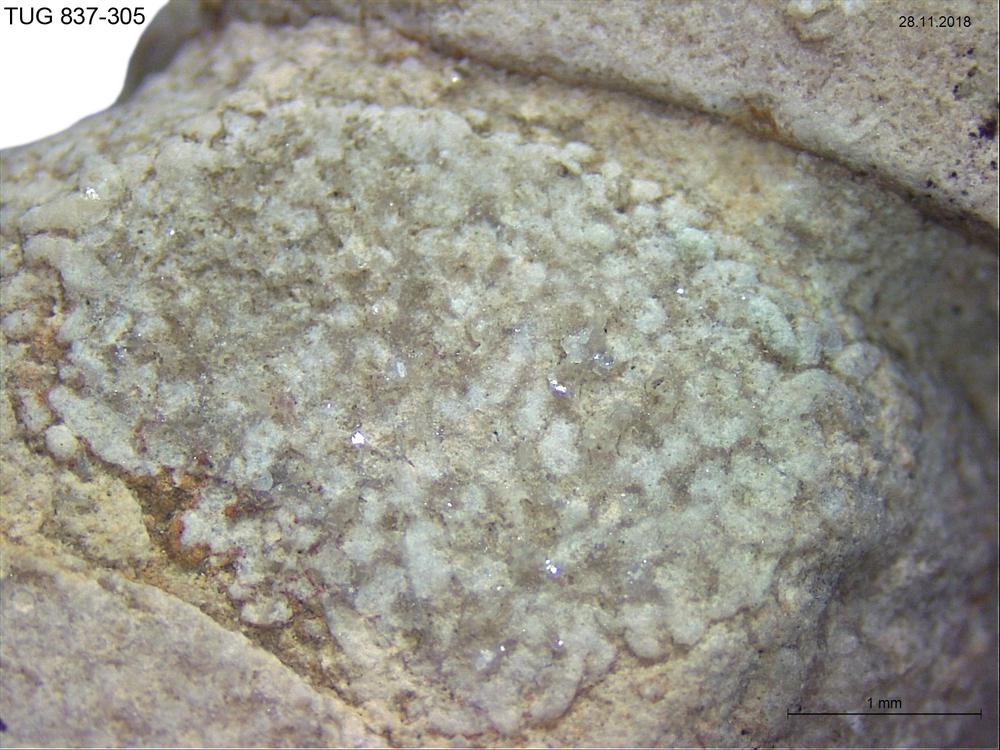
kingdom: Animalia
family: Coprulidae
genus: Coprulus
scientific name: Coprulus
